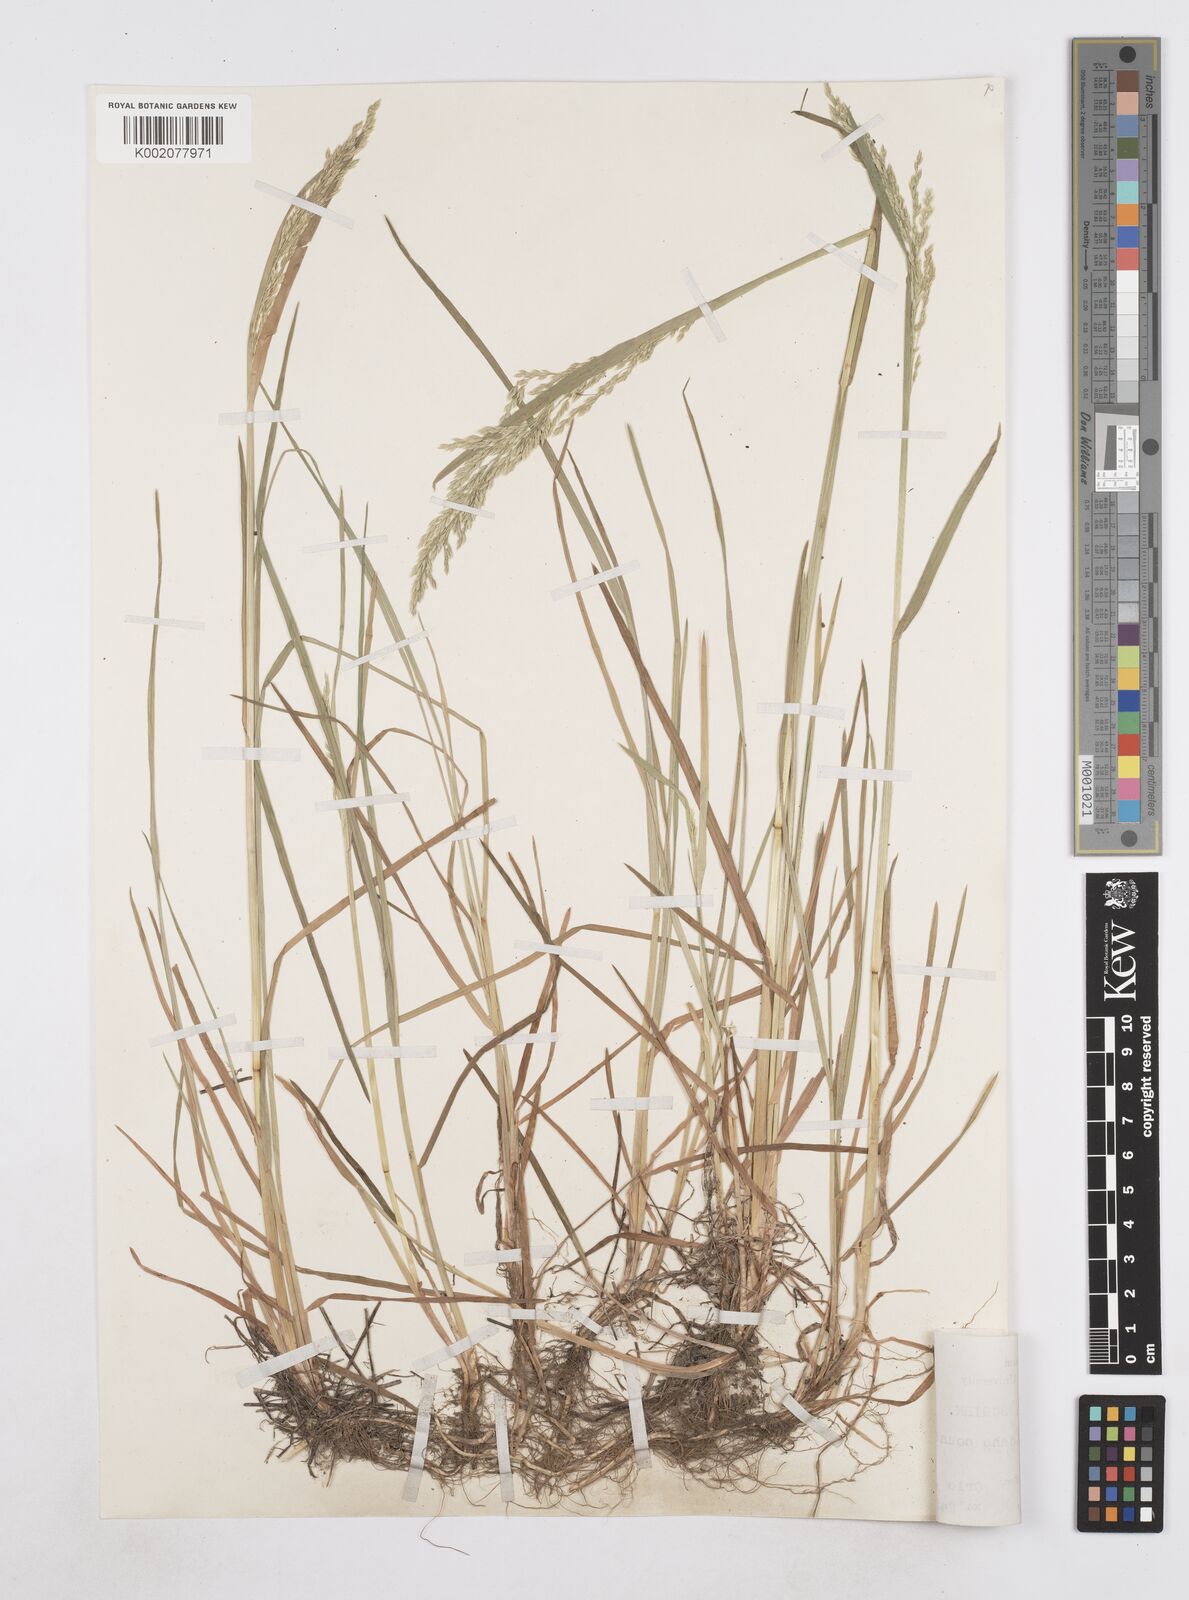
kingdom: Plantae
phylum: Tracheophyta
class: Liliopsida
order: Poales
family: Poaceae
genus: Poa
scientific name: Poa arida
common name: Plains bluegrass
